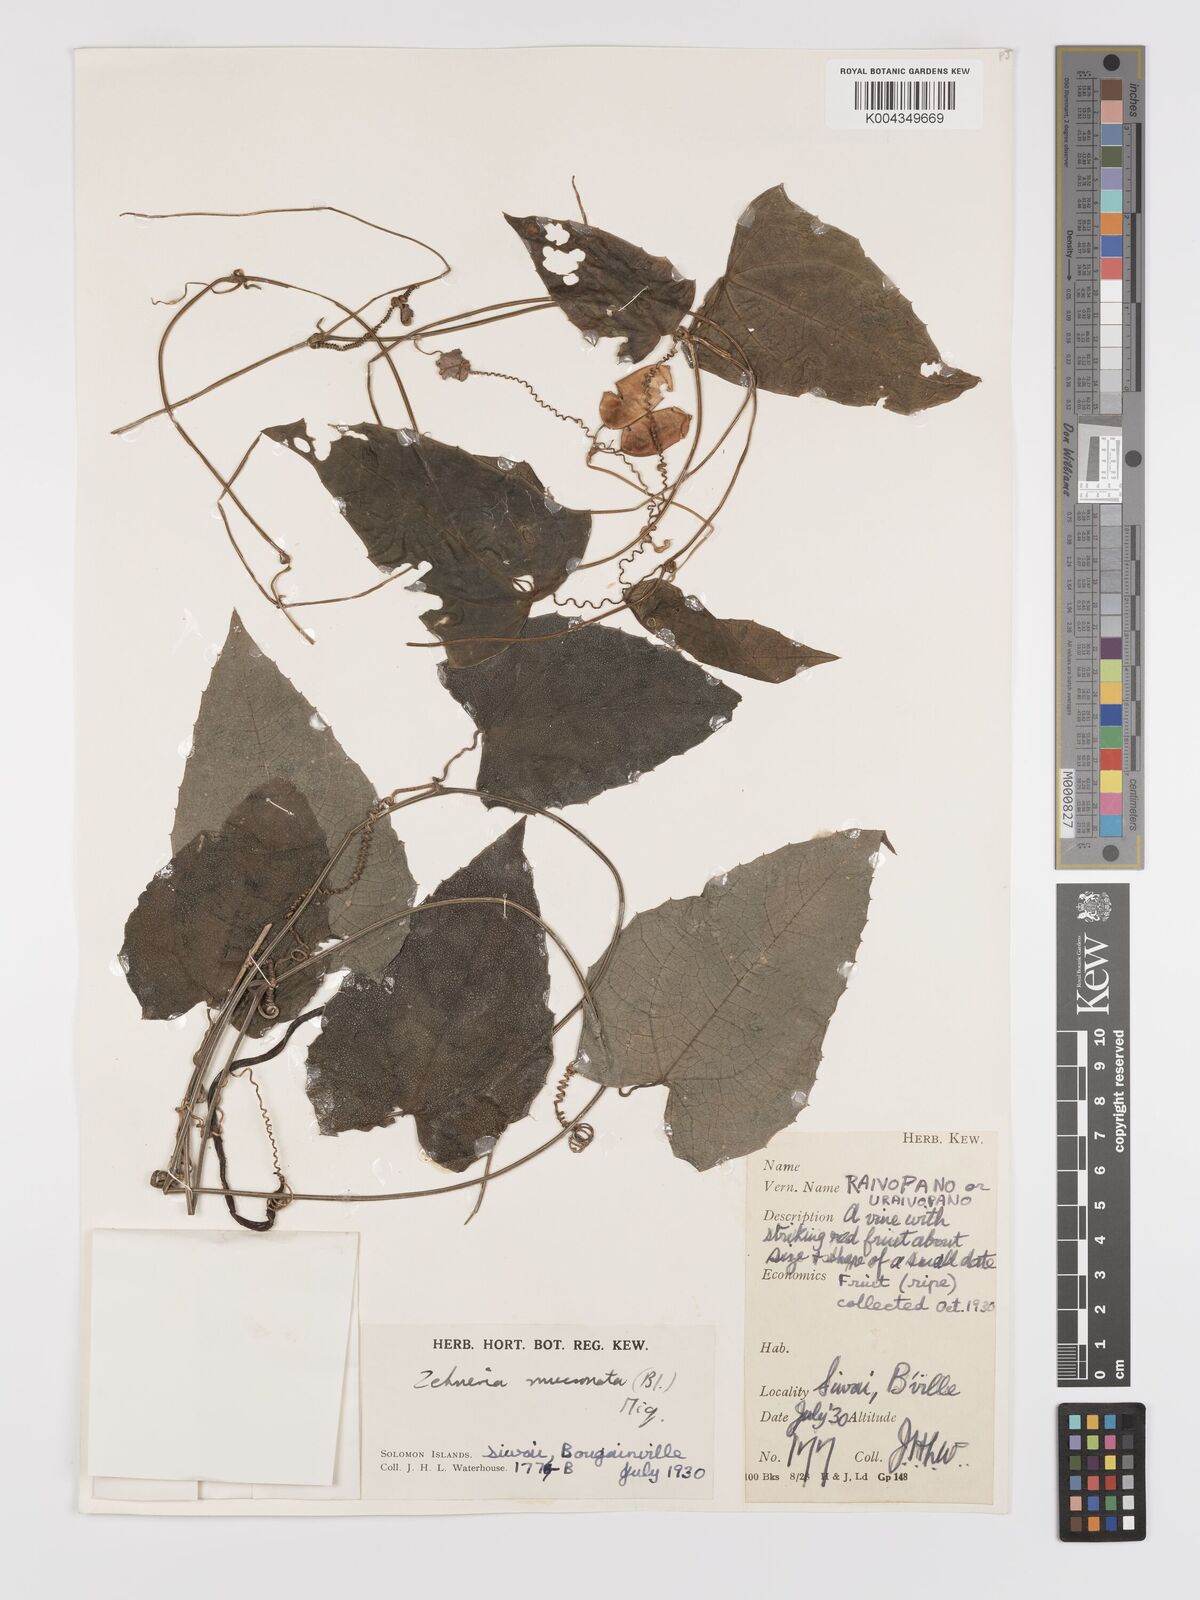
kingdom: Plantae
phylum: Tracheophyta
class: Magnoliopsida
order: Cucurbitales
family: Cucurbitaceae
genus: Zehneria
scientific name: Zehneria mucronata
